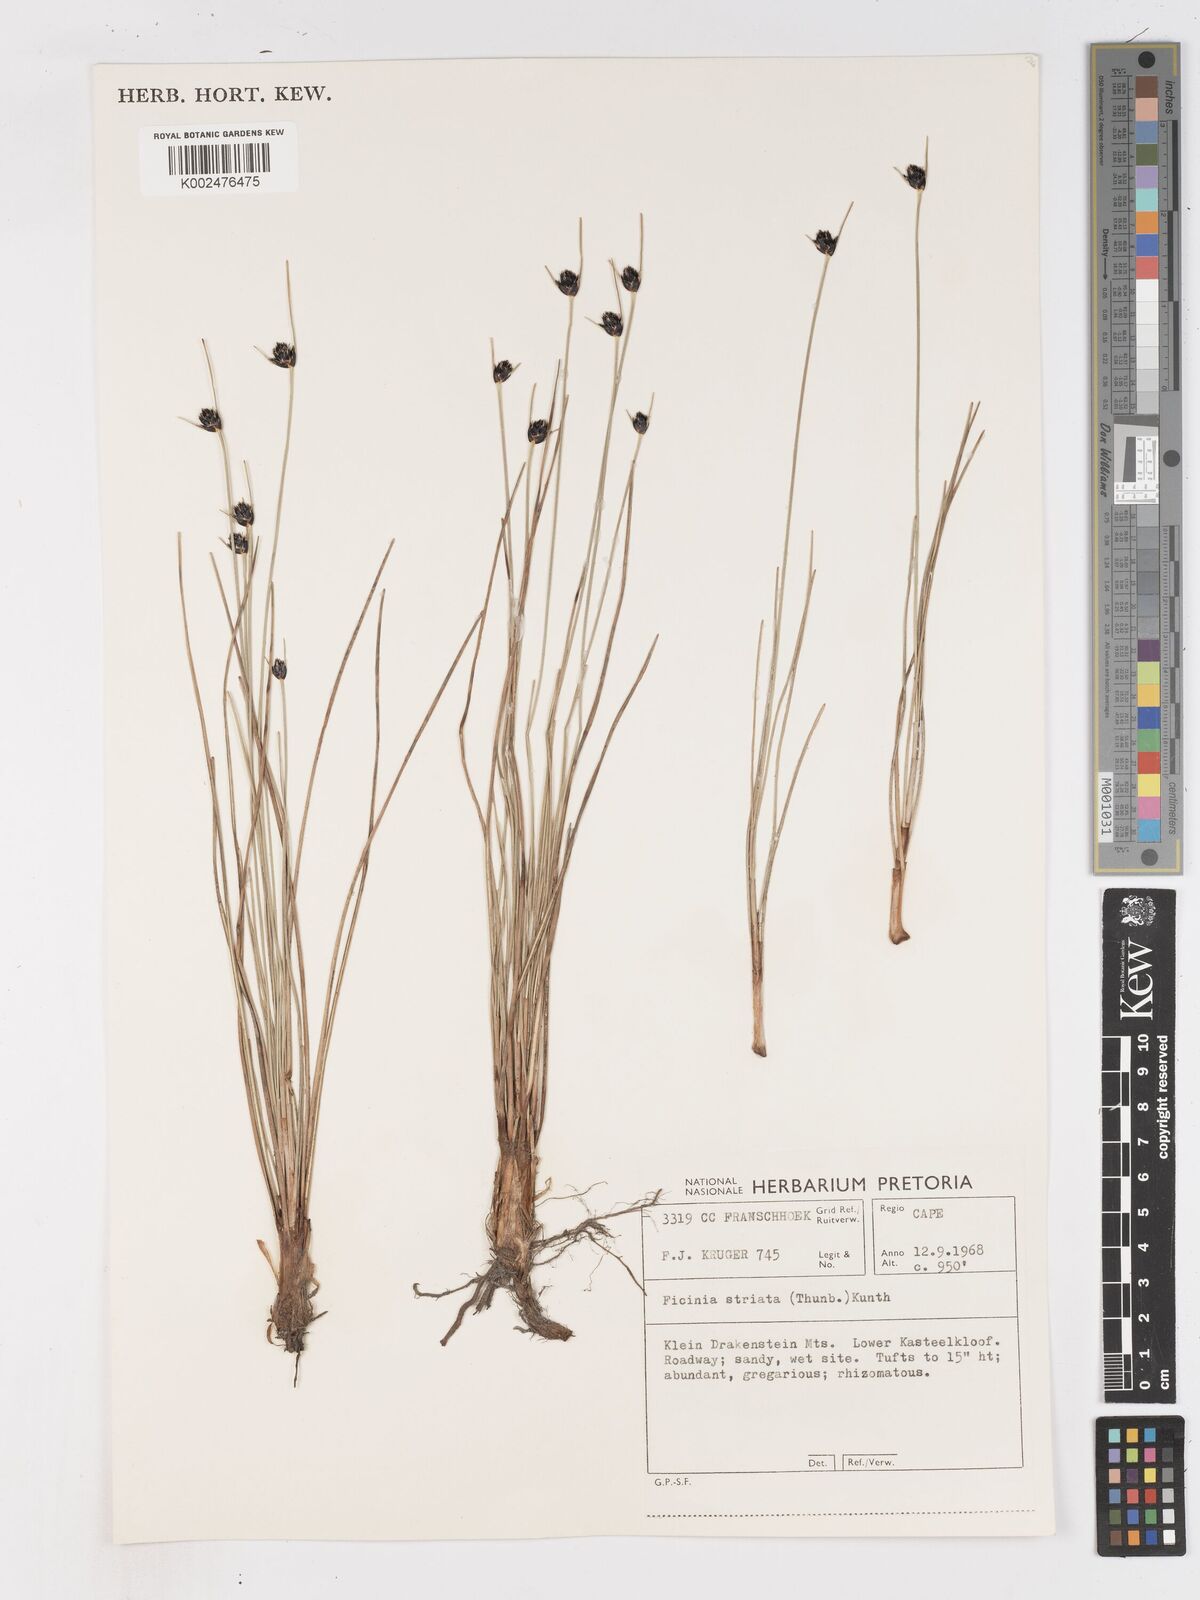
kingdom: Plantae
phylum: Tracheophyta
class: Liliopsida
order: Poales
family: Cyperaceae
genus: Ficinia
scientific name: Ficinia indica
